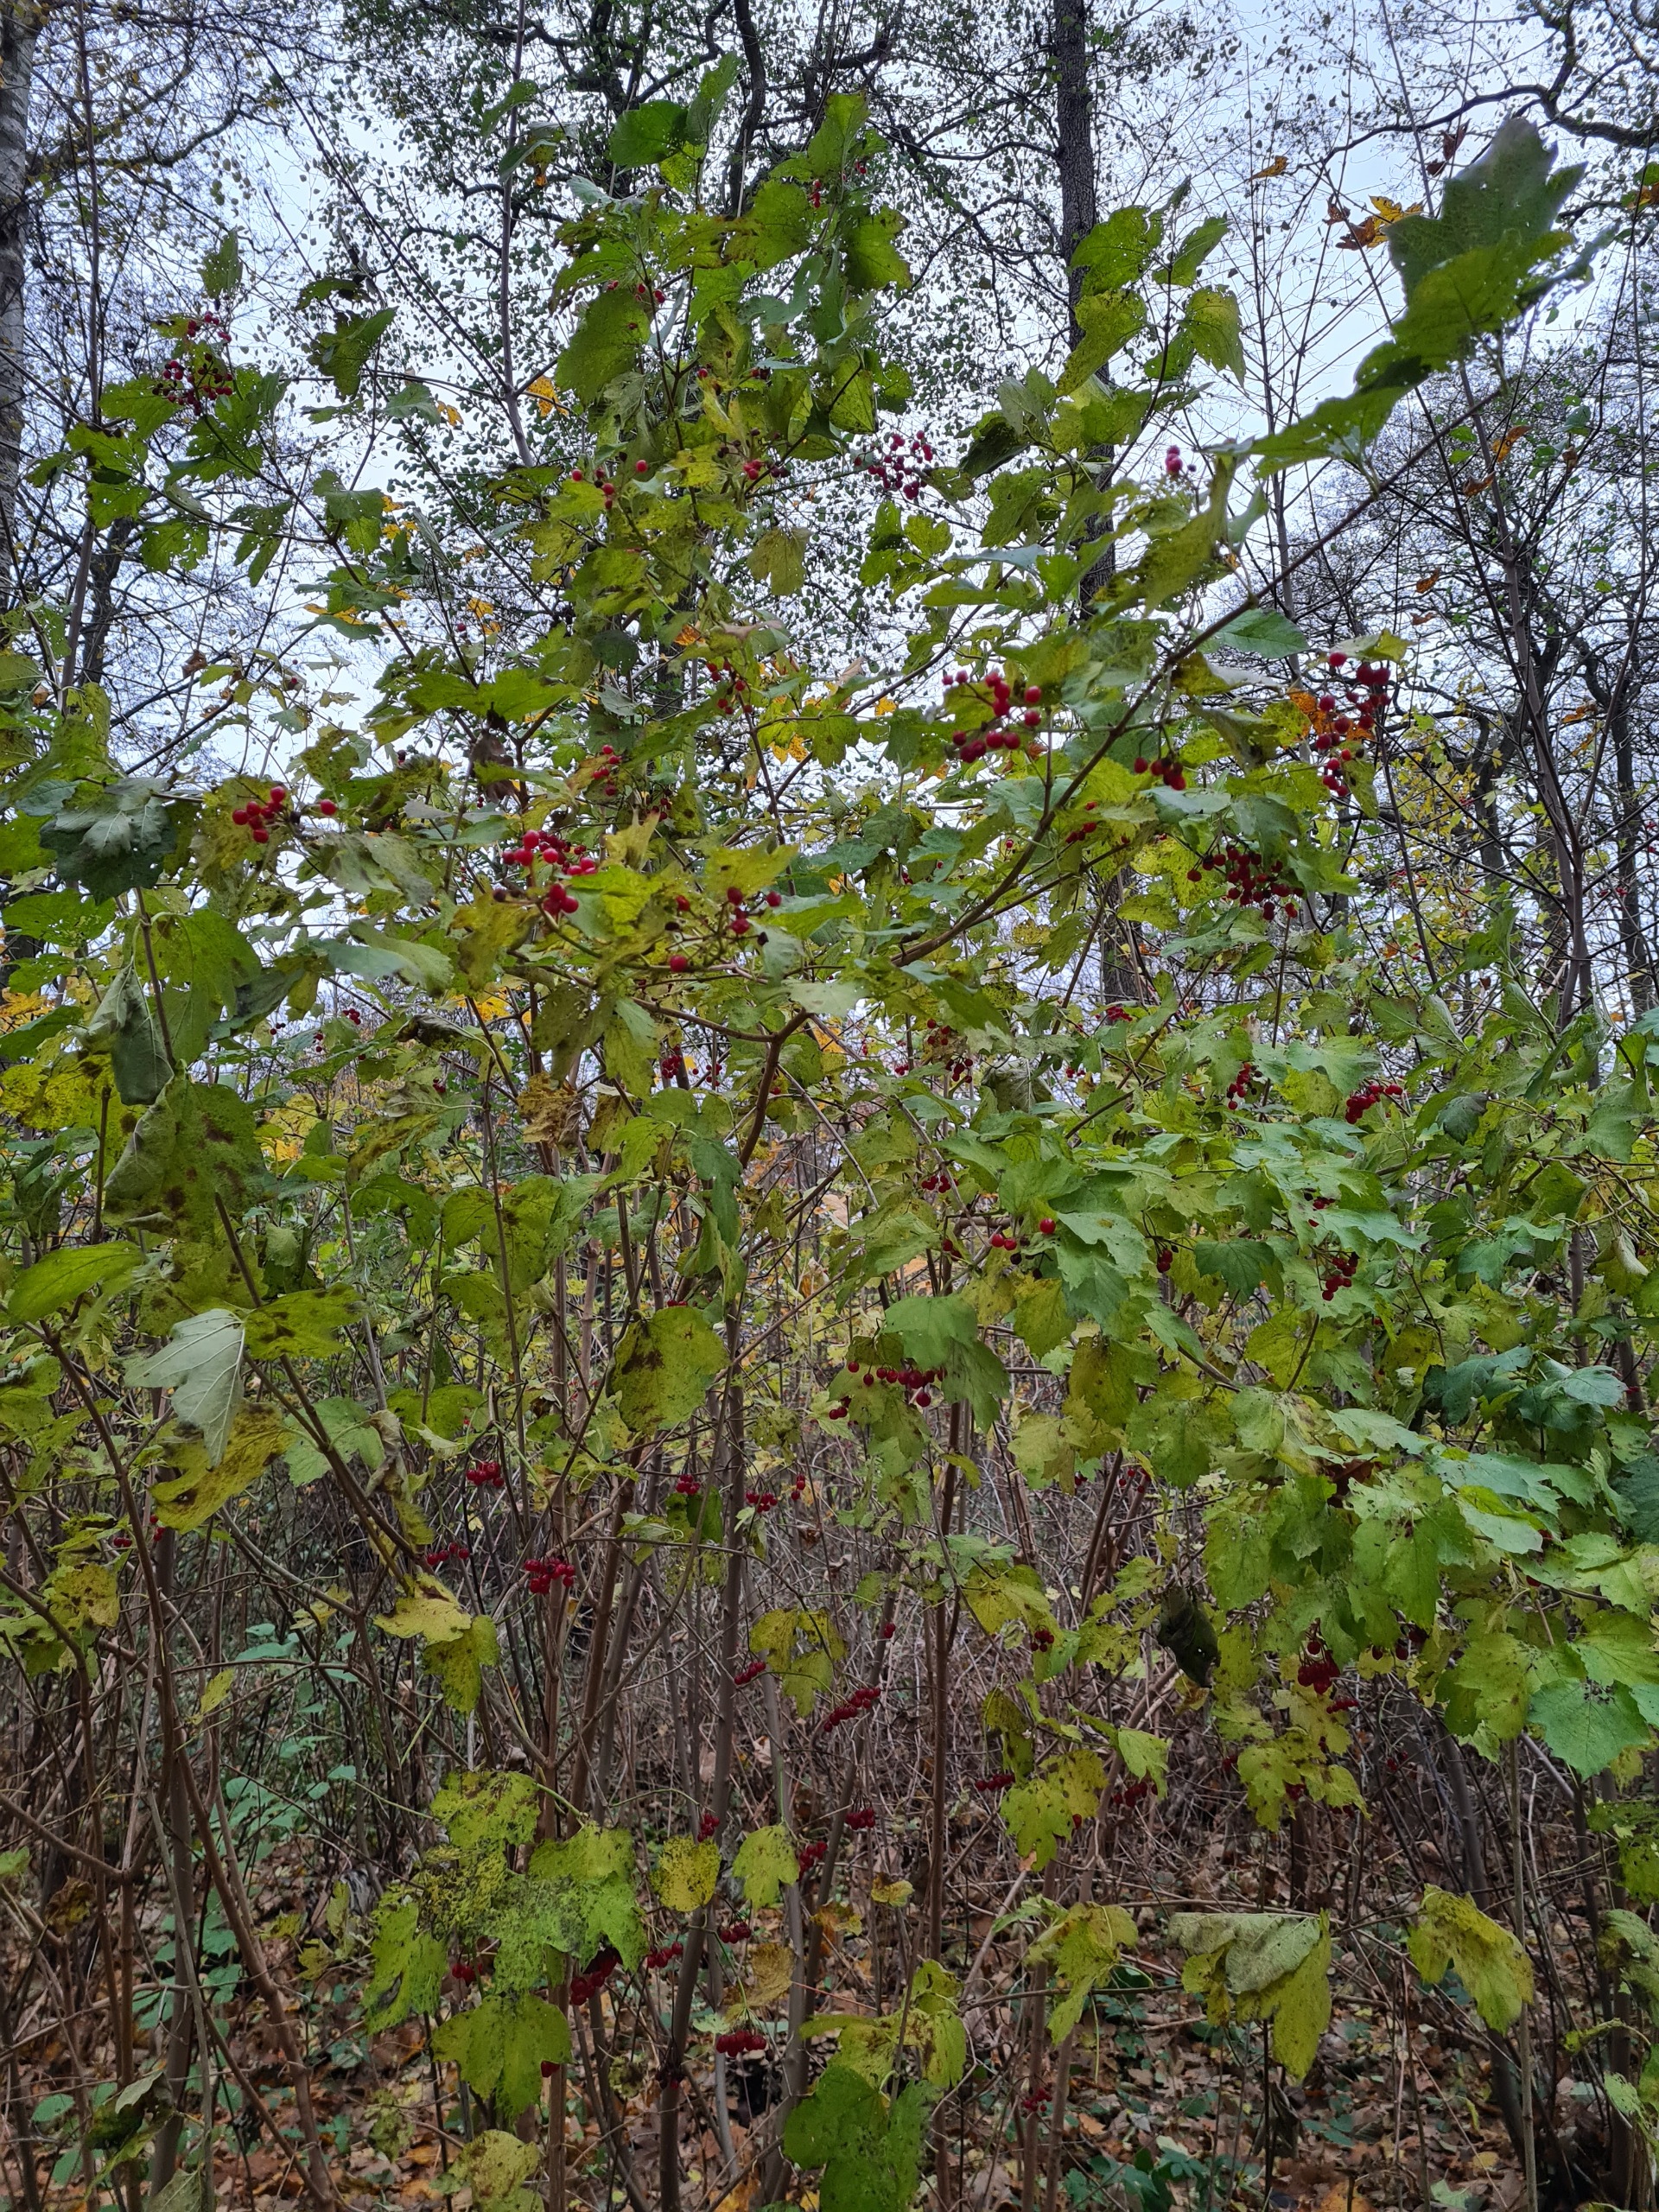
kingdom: Plantae
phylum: Tracheophyta
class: Magnoliopsida
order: Dipsacales
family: Viburnaceae
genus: Viburnum
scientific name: Viburnum opulus
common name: Kvalkved
